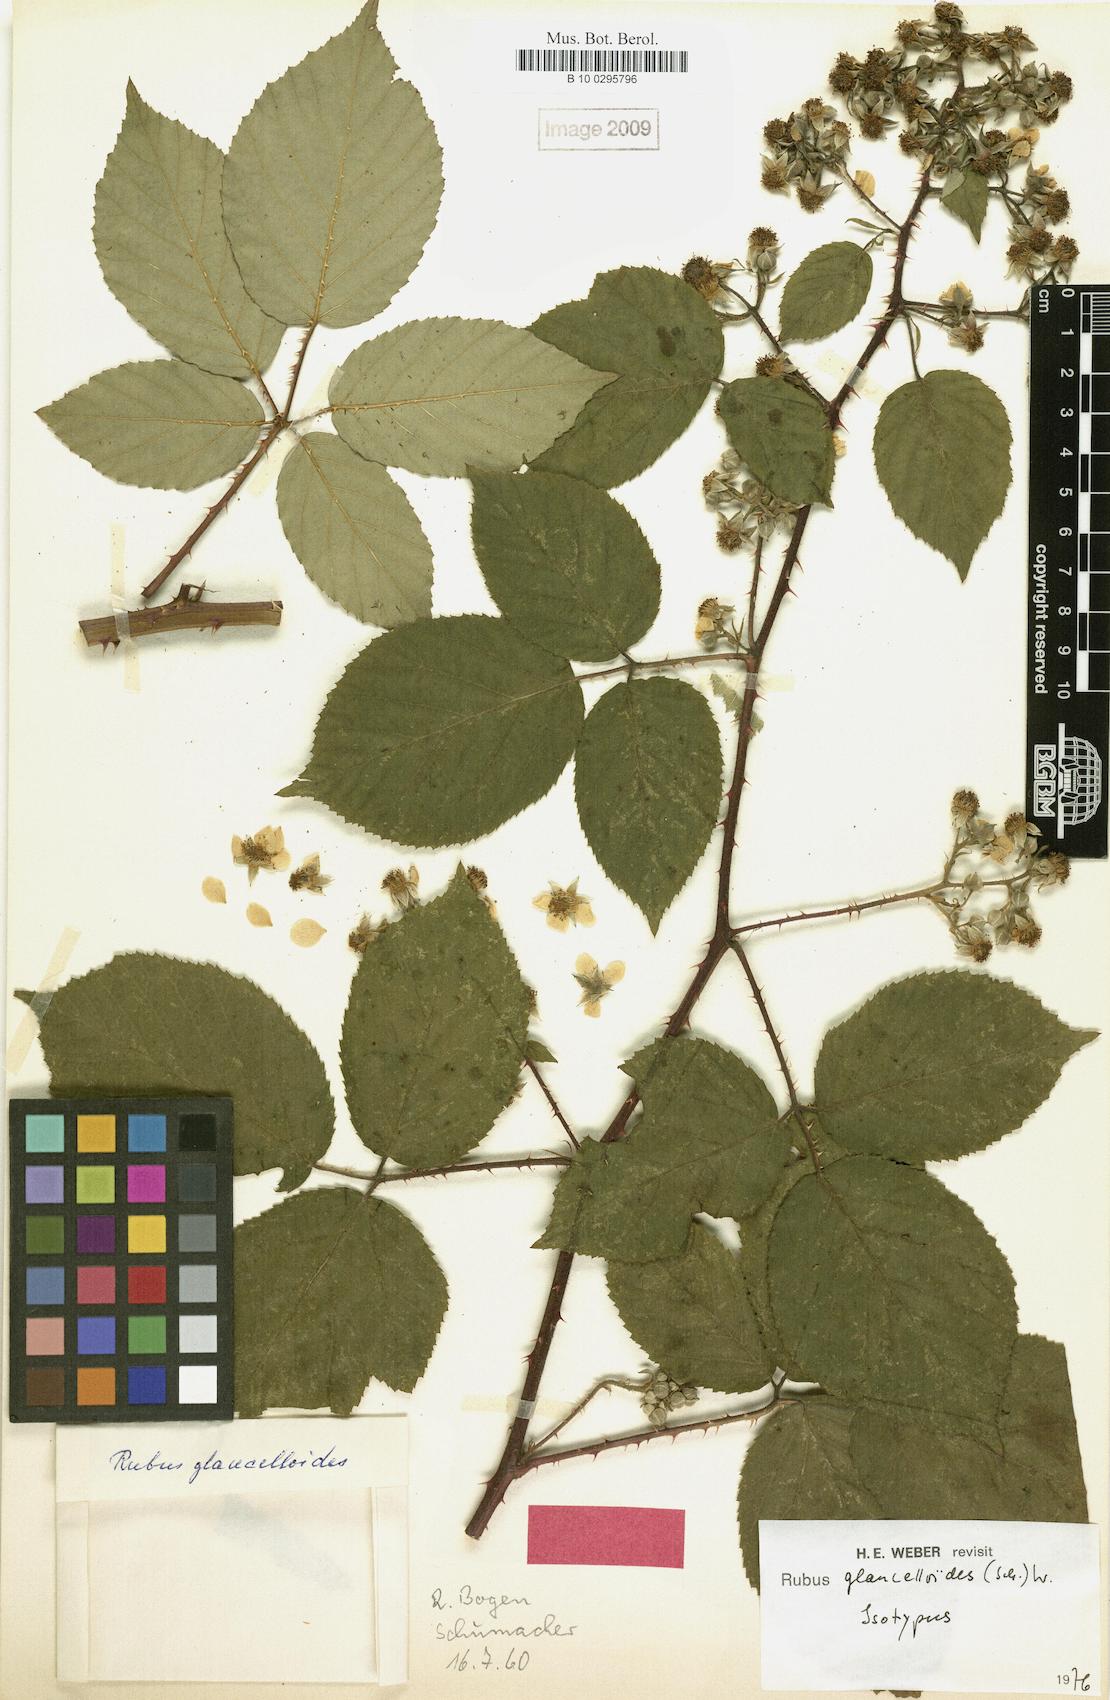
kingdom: Plantae
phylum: Tracheophyta
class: Magnoliopsida
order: Rosales
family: Rosaceae
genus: Rubus
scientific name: Rubus
